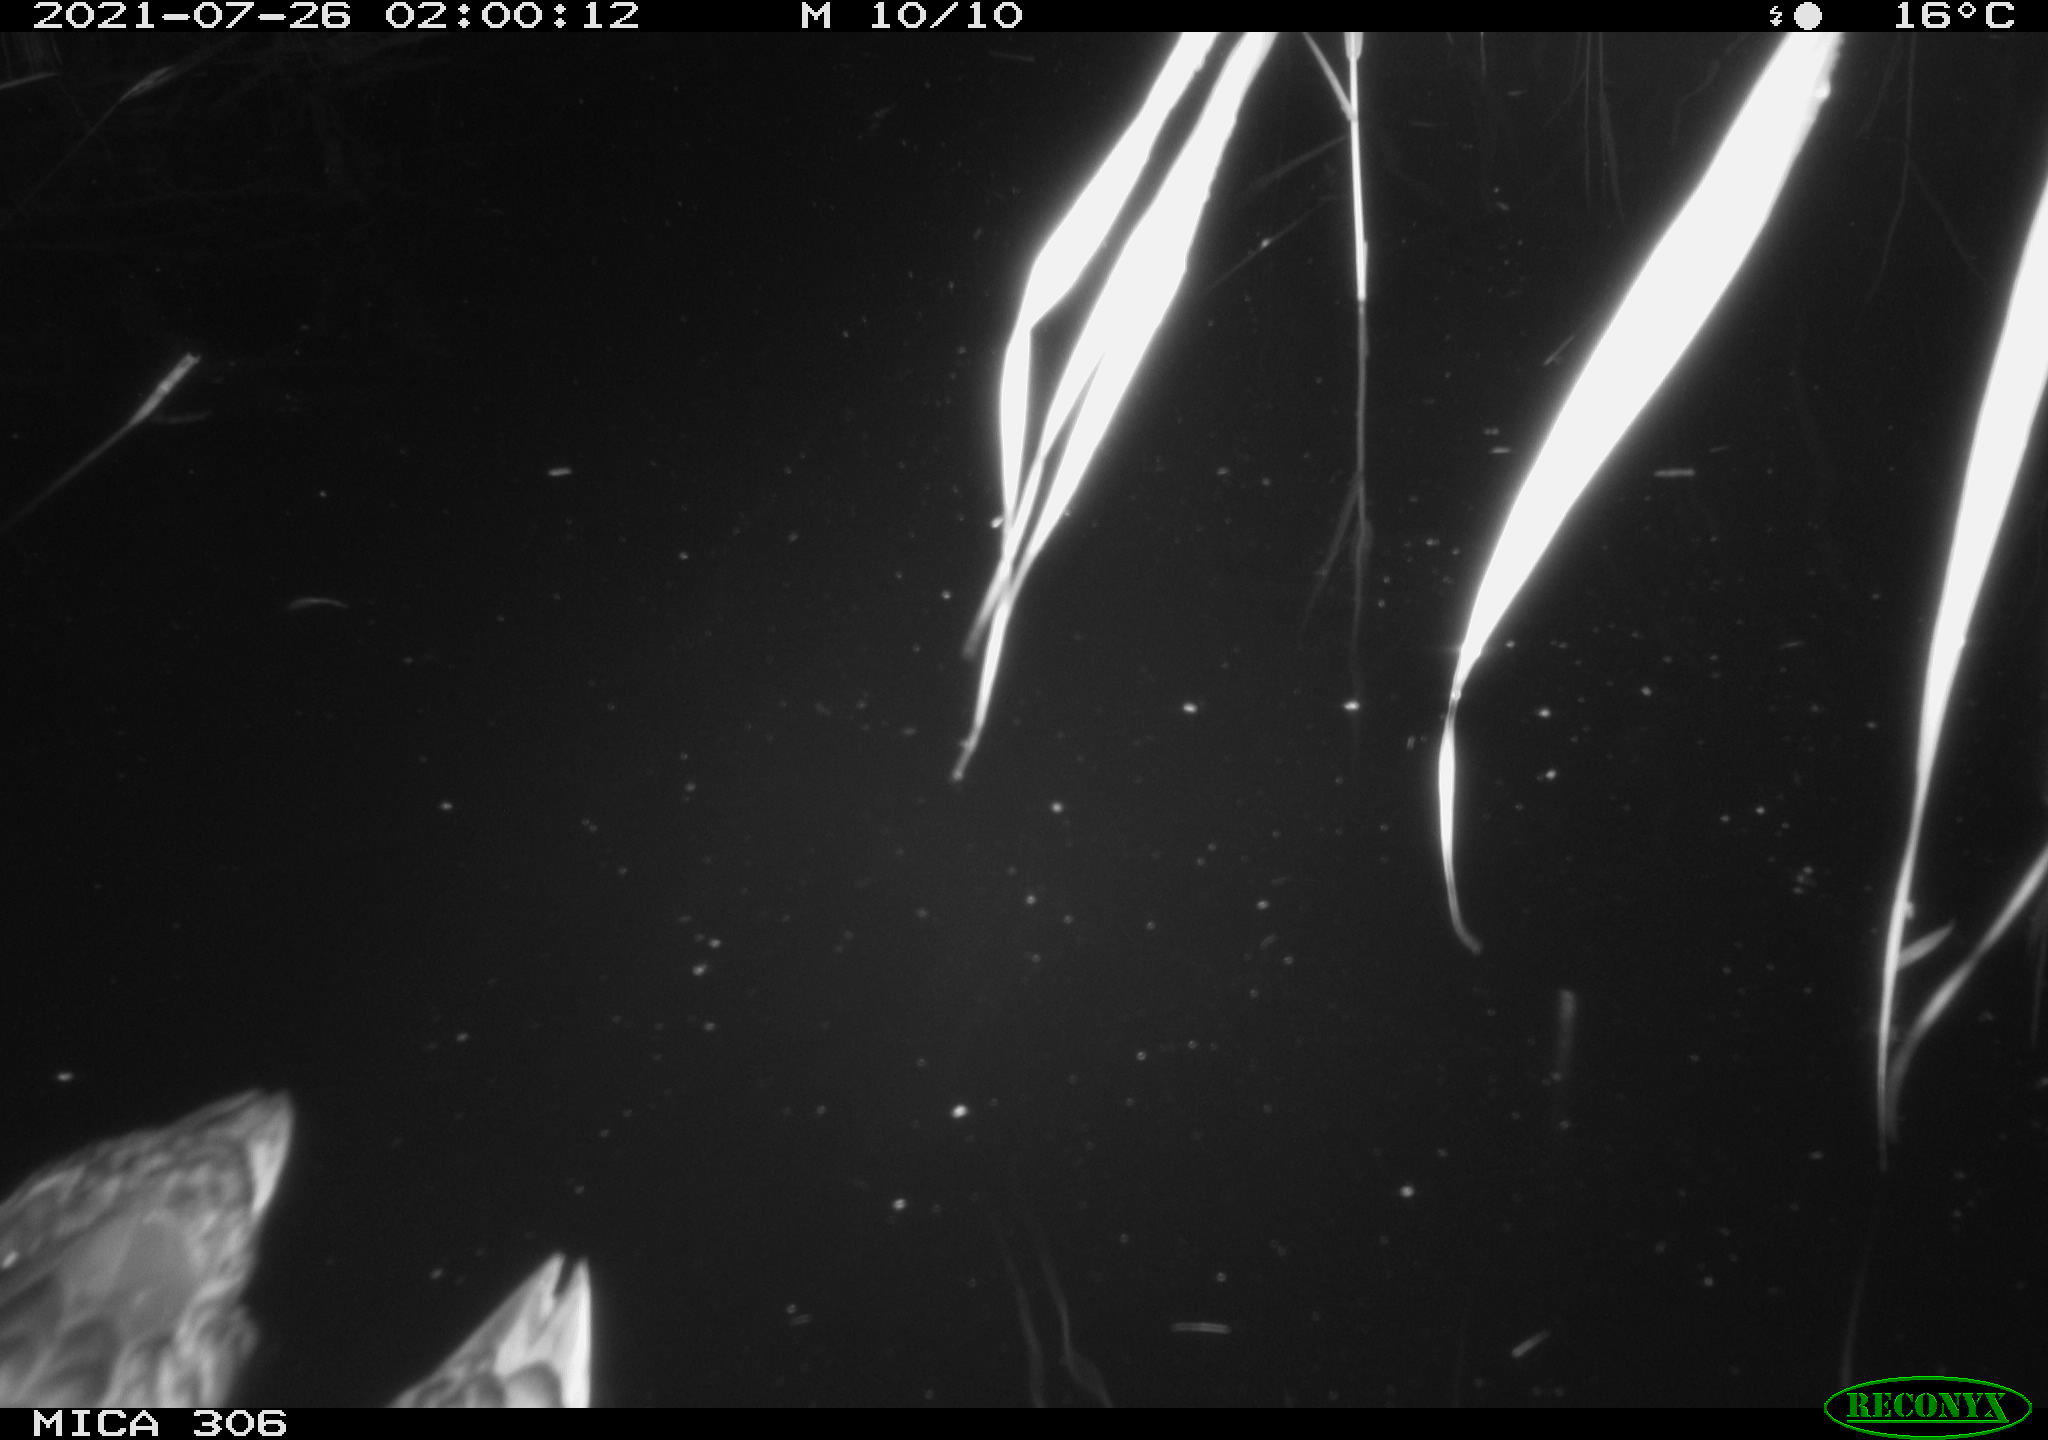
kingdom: Animalia
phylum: Chordata
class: Aves
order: Anseriformes
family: Anatidae
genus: Anas
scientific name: Anas
